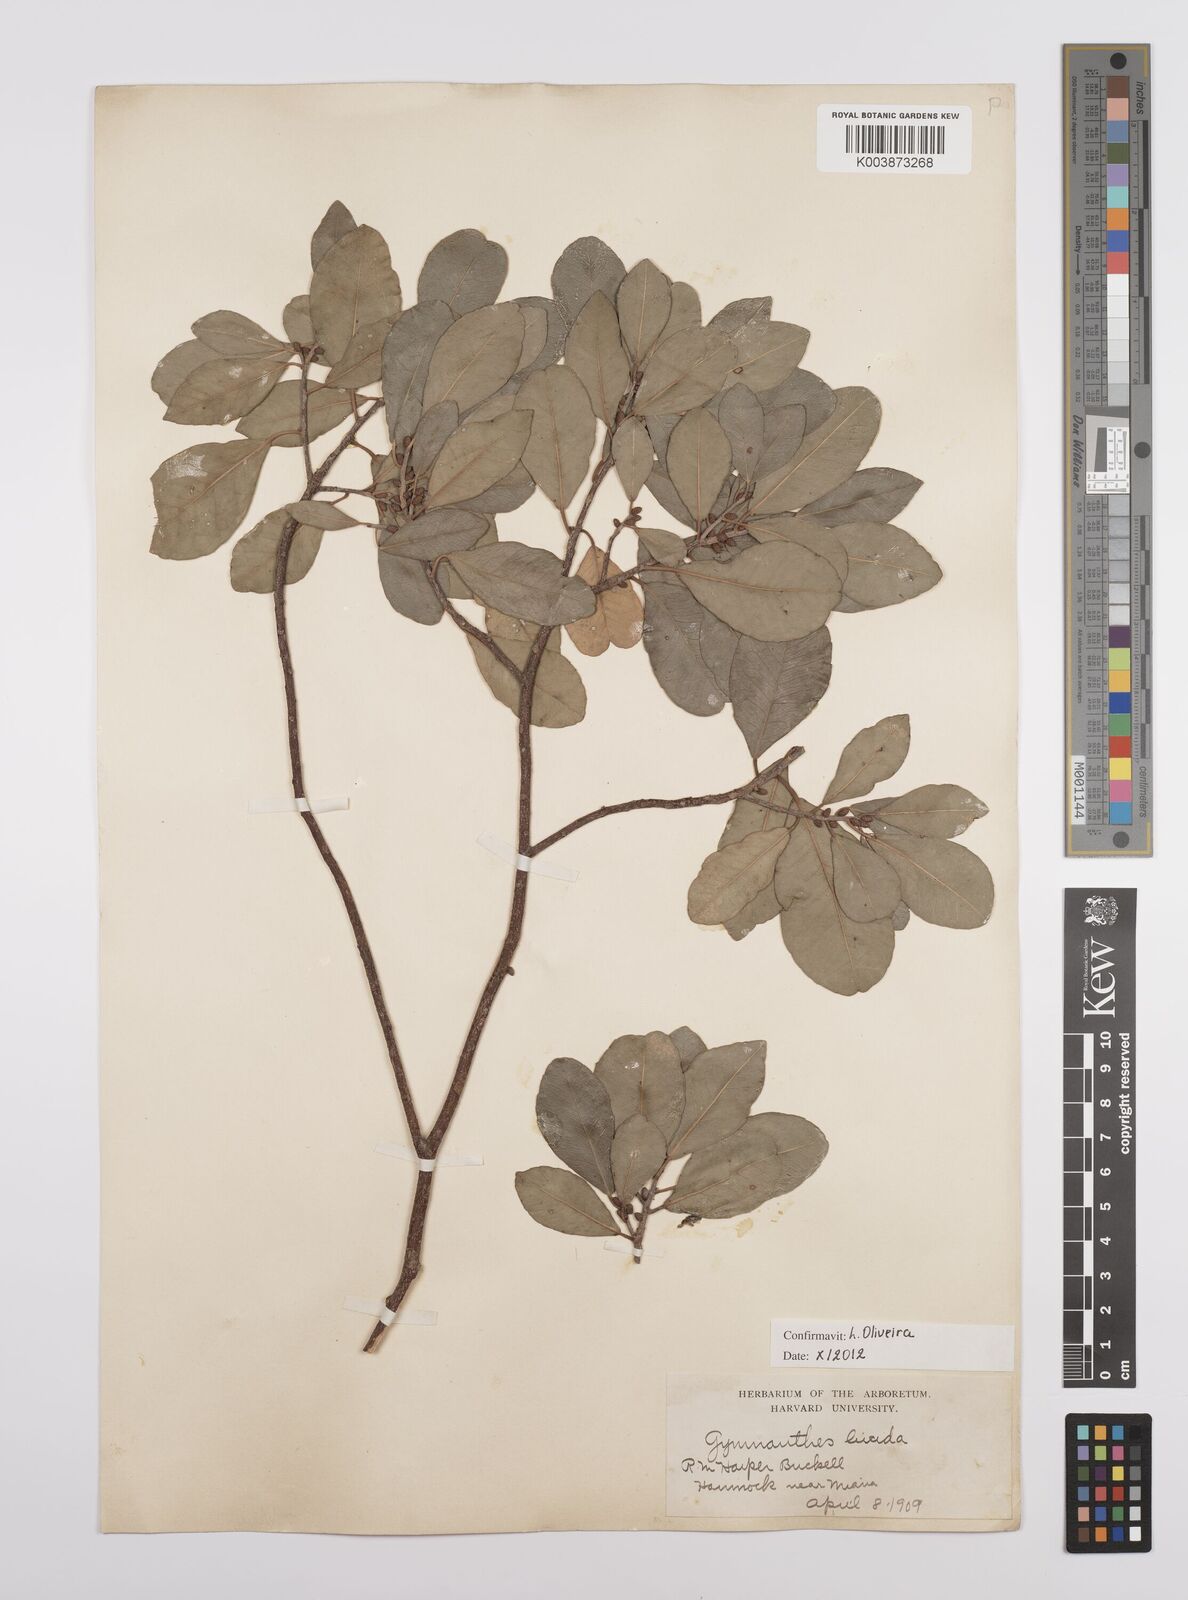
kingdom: Plantae
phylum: Tracheophyta
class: Magnoliopsida
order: Malpighiales
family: Euphorbiaceae
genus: Gymnanthes
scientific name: Gymnanthes lucida
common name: Oysterwood
